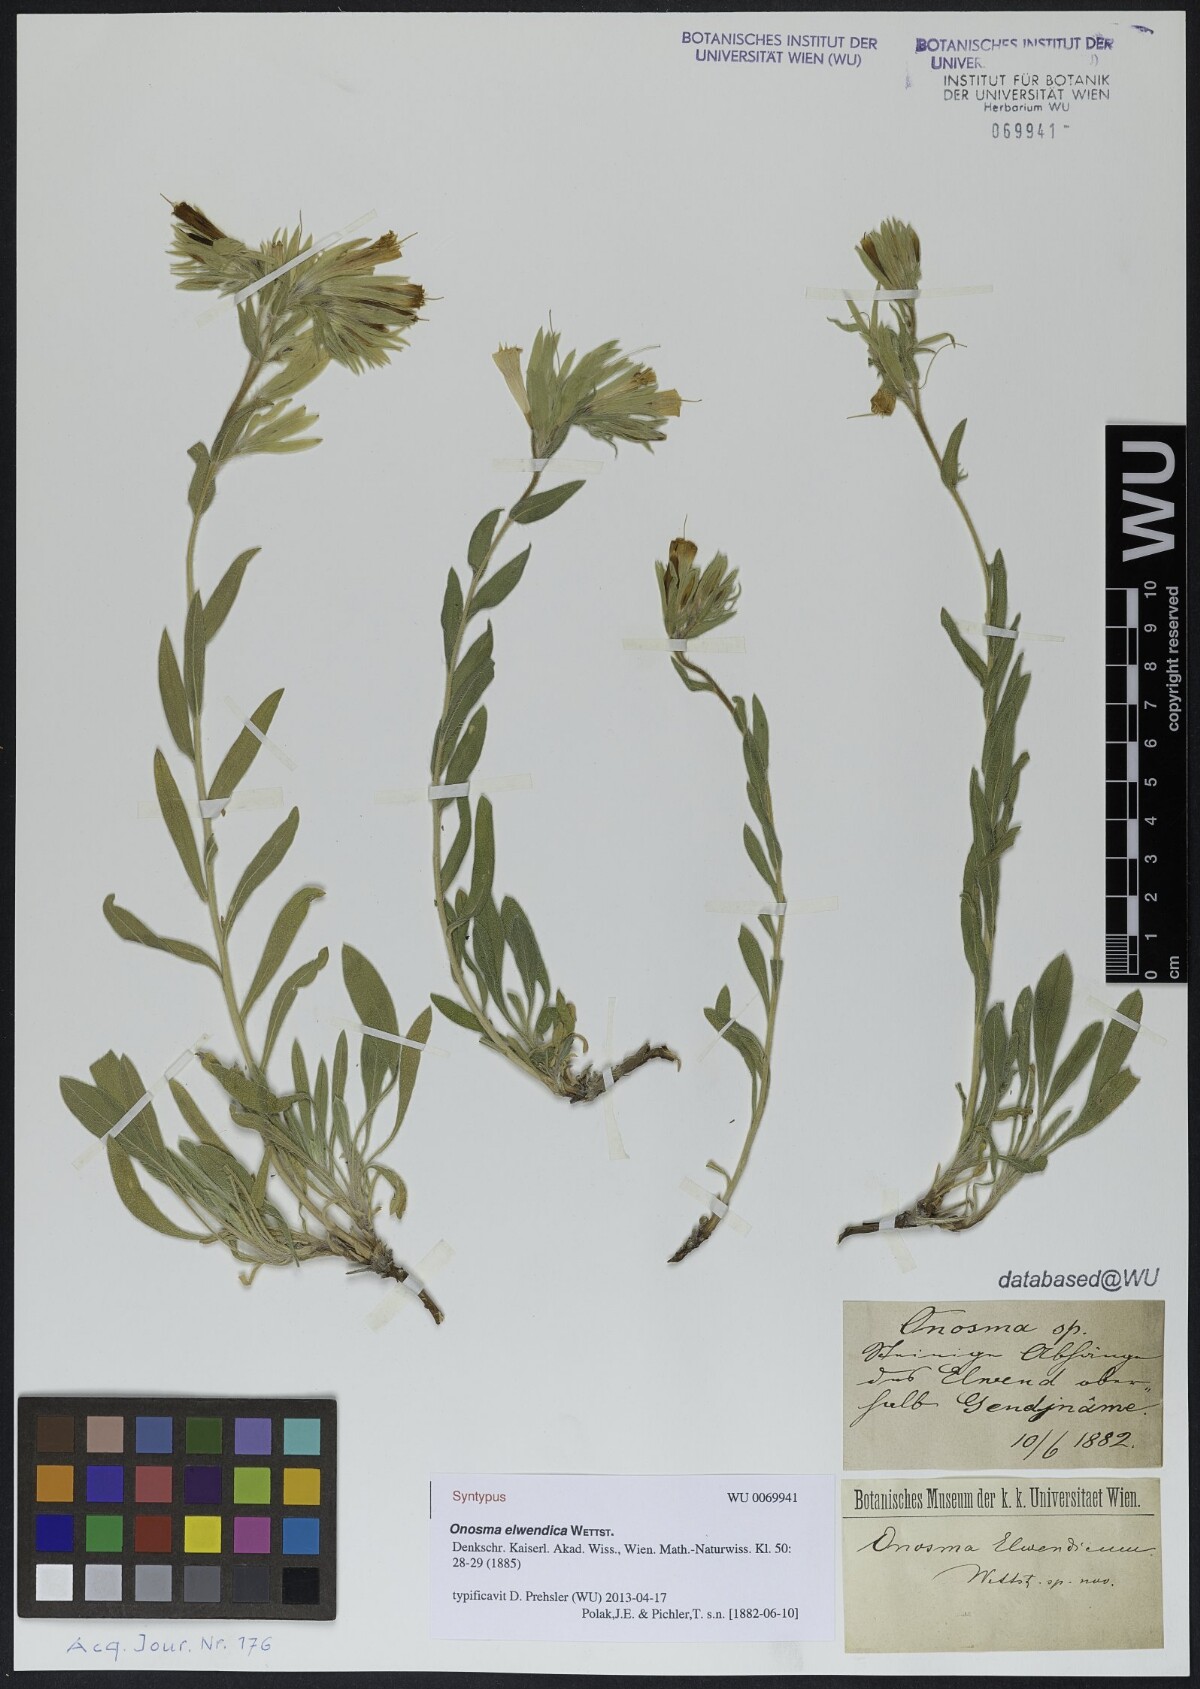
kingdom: Plantae
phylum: Tracheophyta
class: Magnoliopsida
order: Boraginales
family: Boraginaceae
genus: Onosma
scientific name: Onosma elwendica
